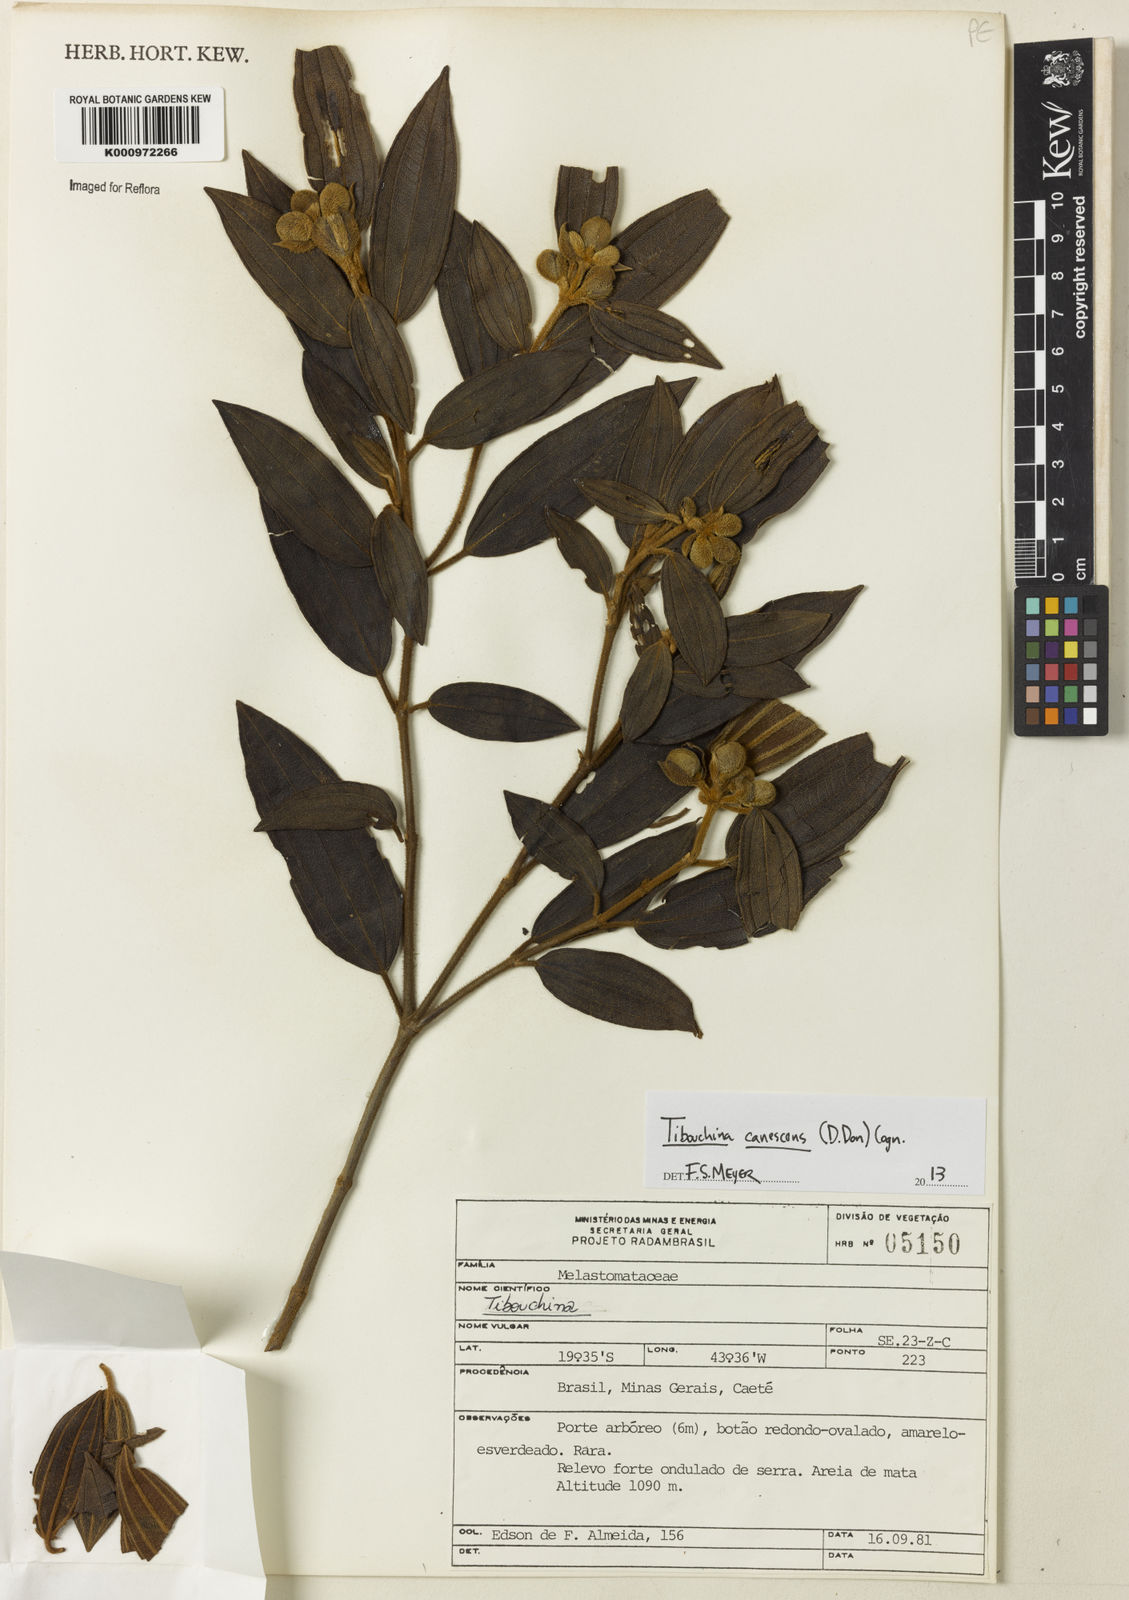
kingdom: Plantae
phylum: Tracheophyta
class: Magnoliopsida
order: Myrtales
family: Melastomataceae
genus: Pleroma
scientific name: Pleroma canescens
